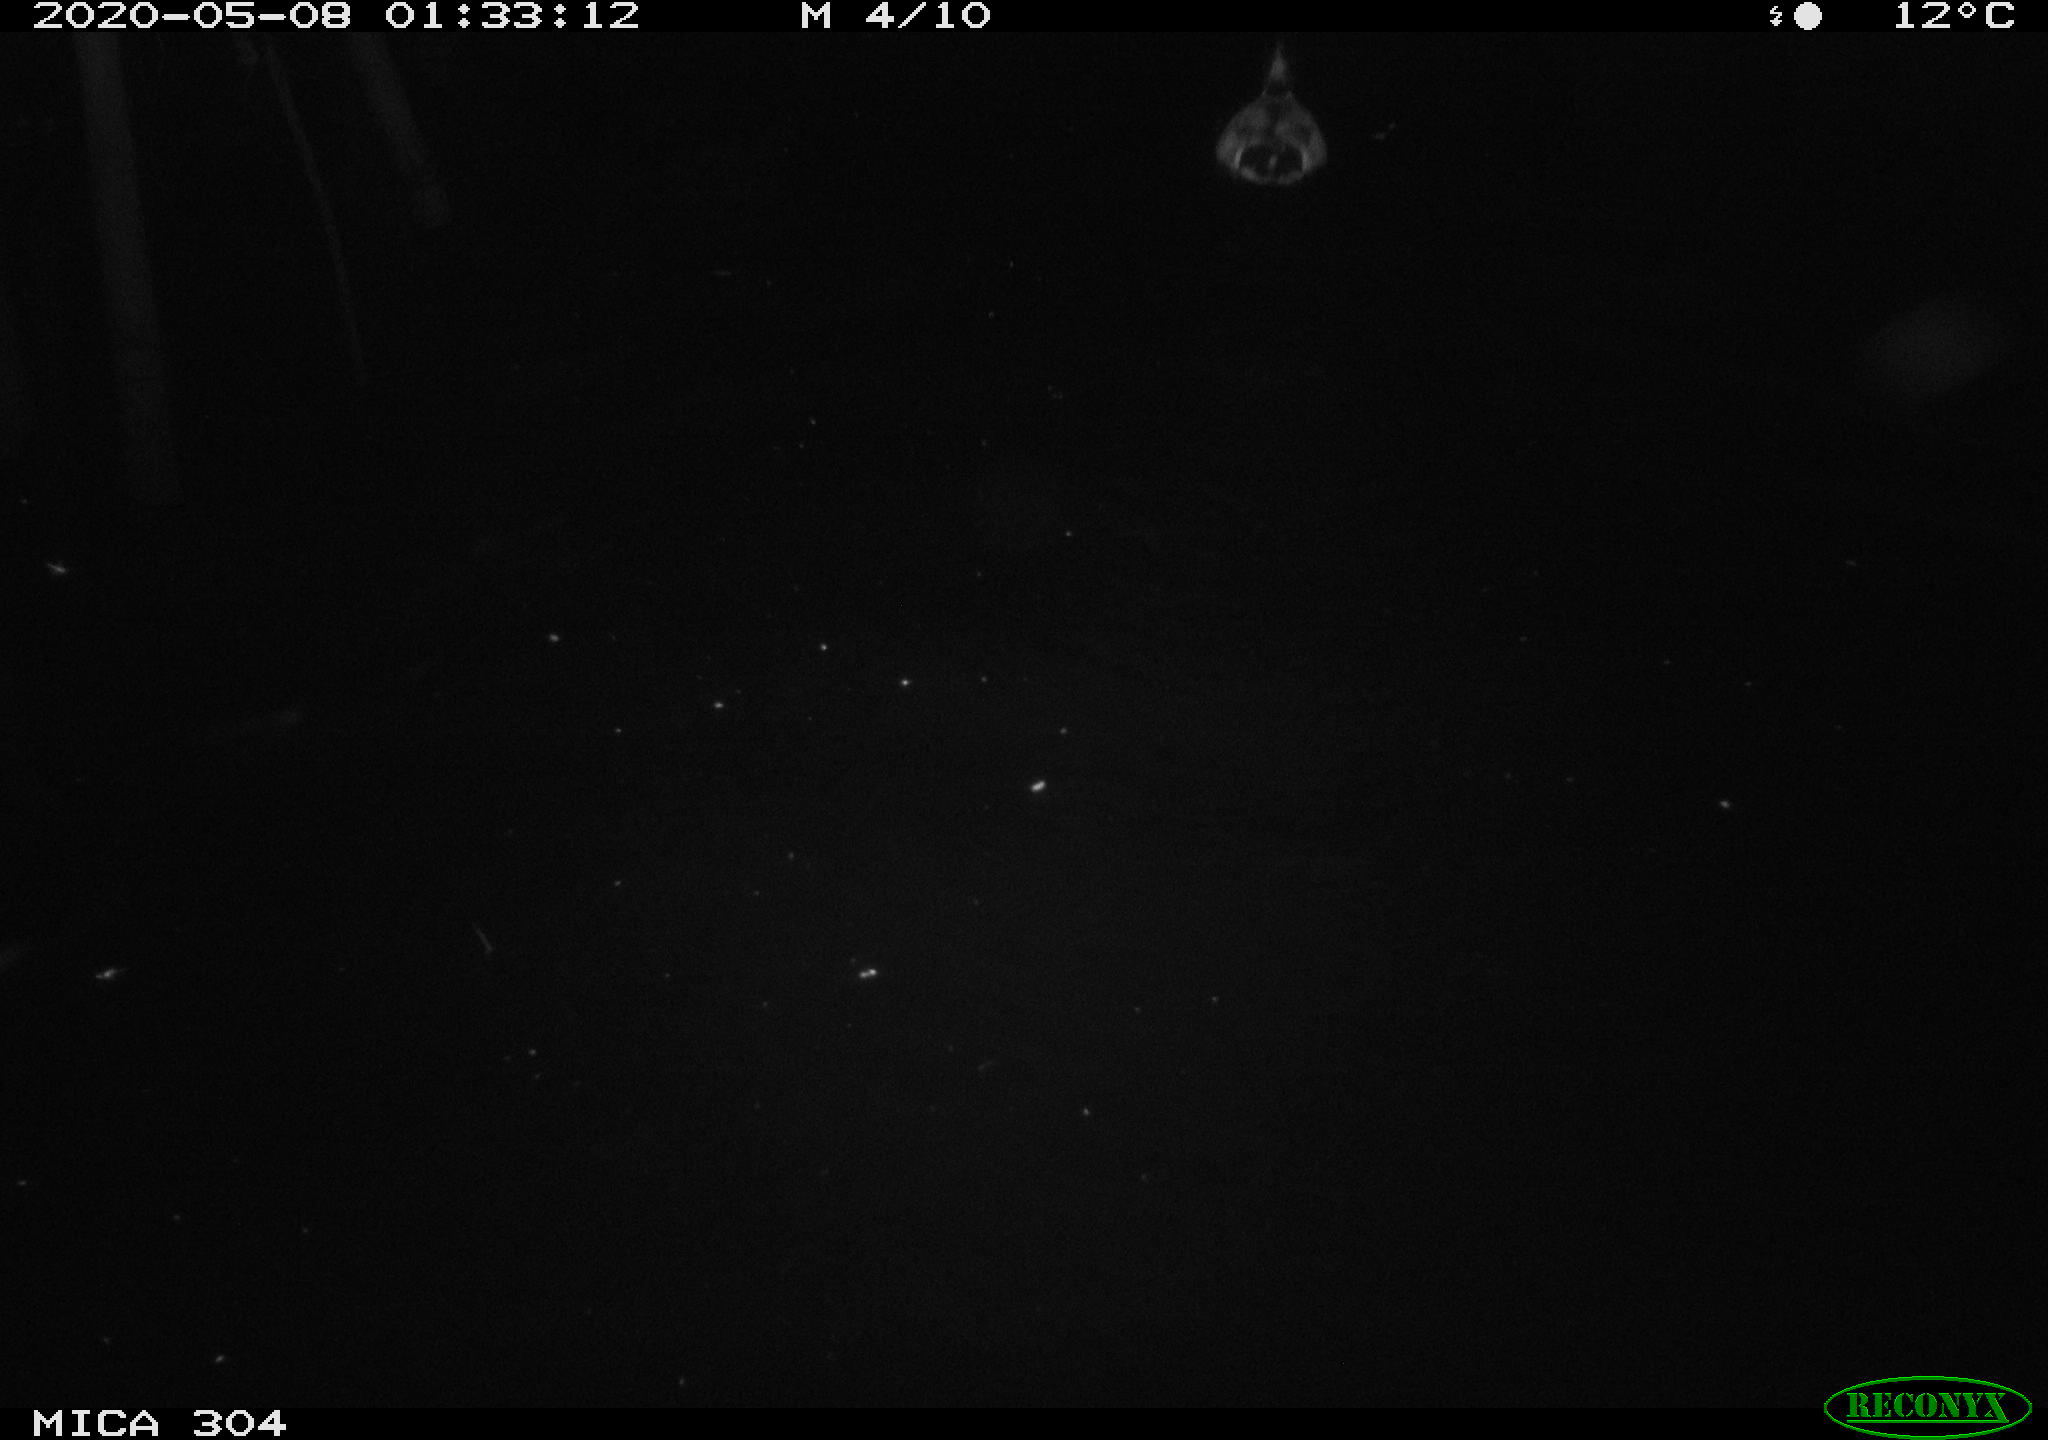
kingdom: Animalia
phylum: Chordata
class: Aves
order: Anseriformes
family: Anatidae
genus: Anas
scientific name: Anas platyrhynchos
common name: Mallard
